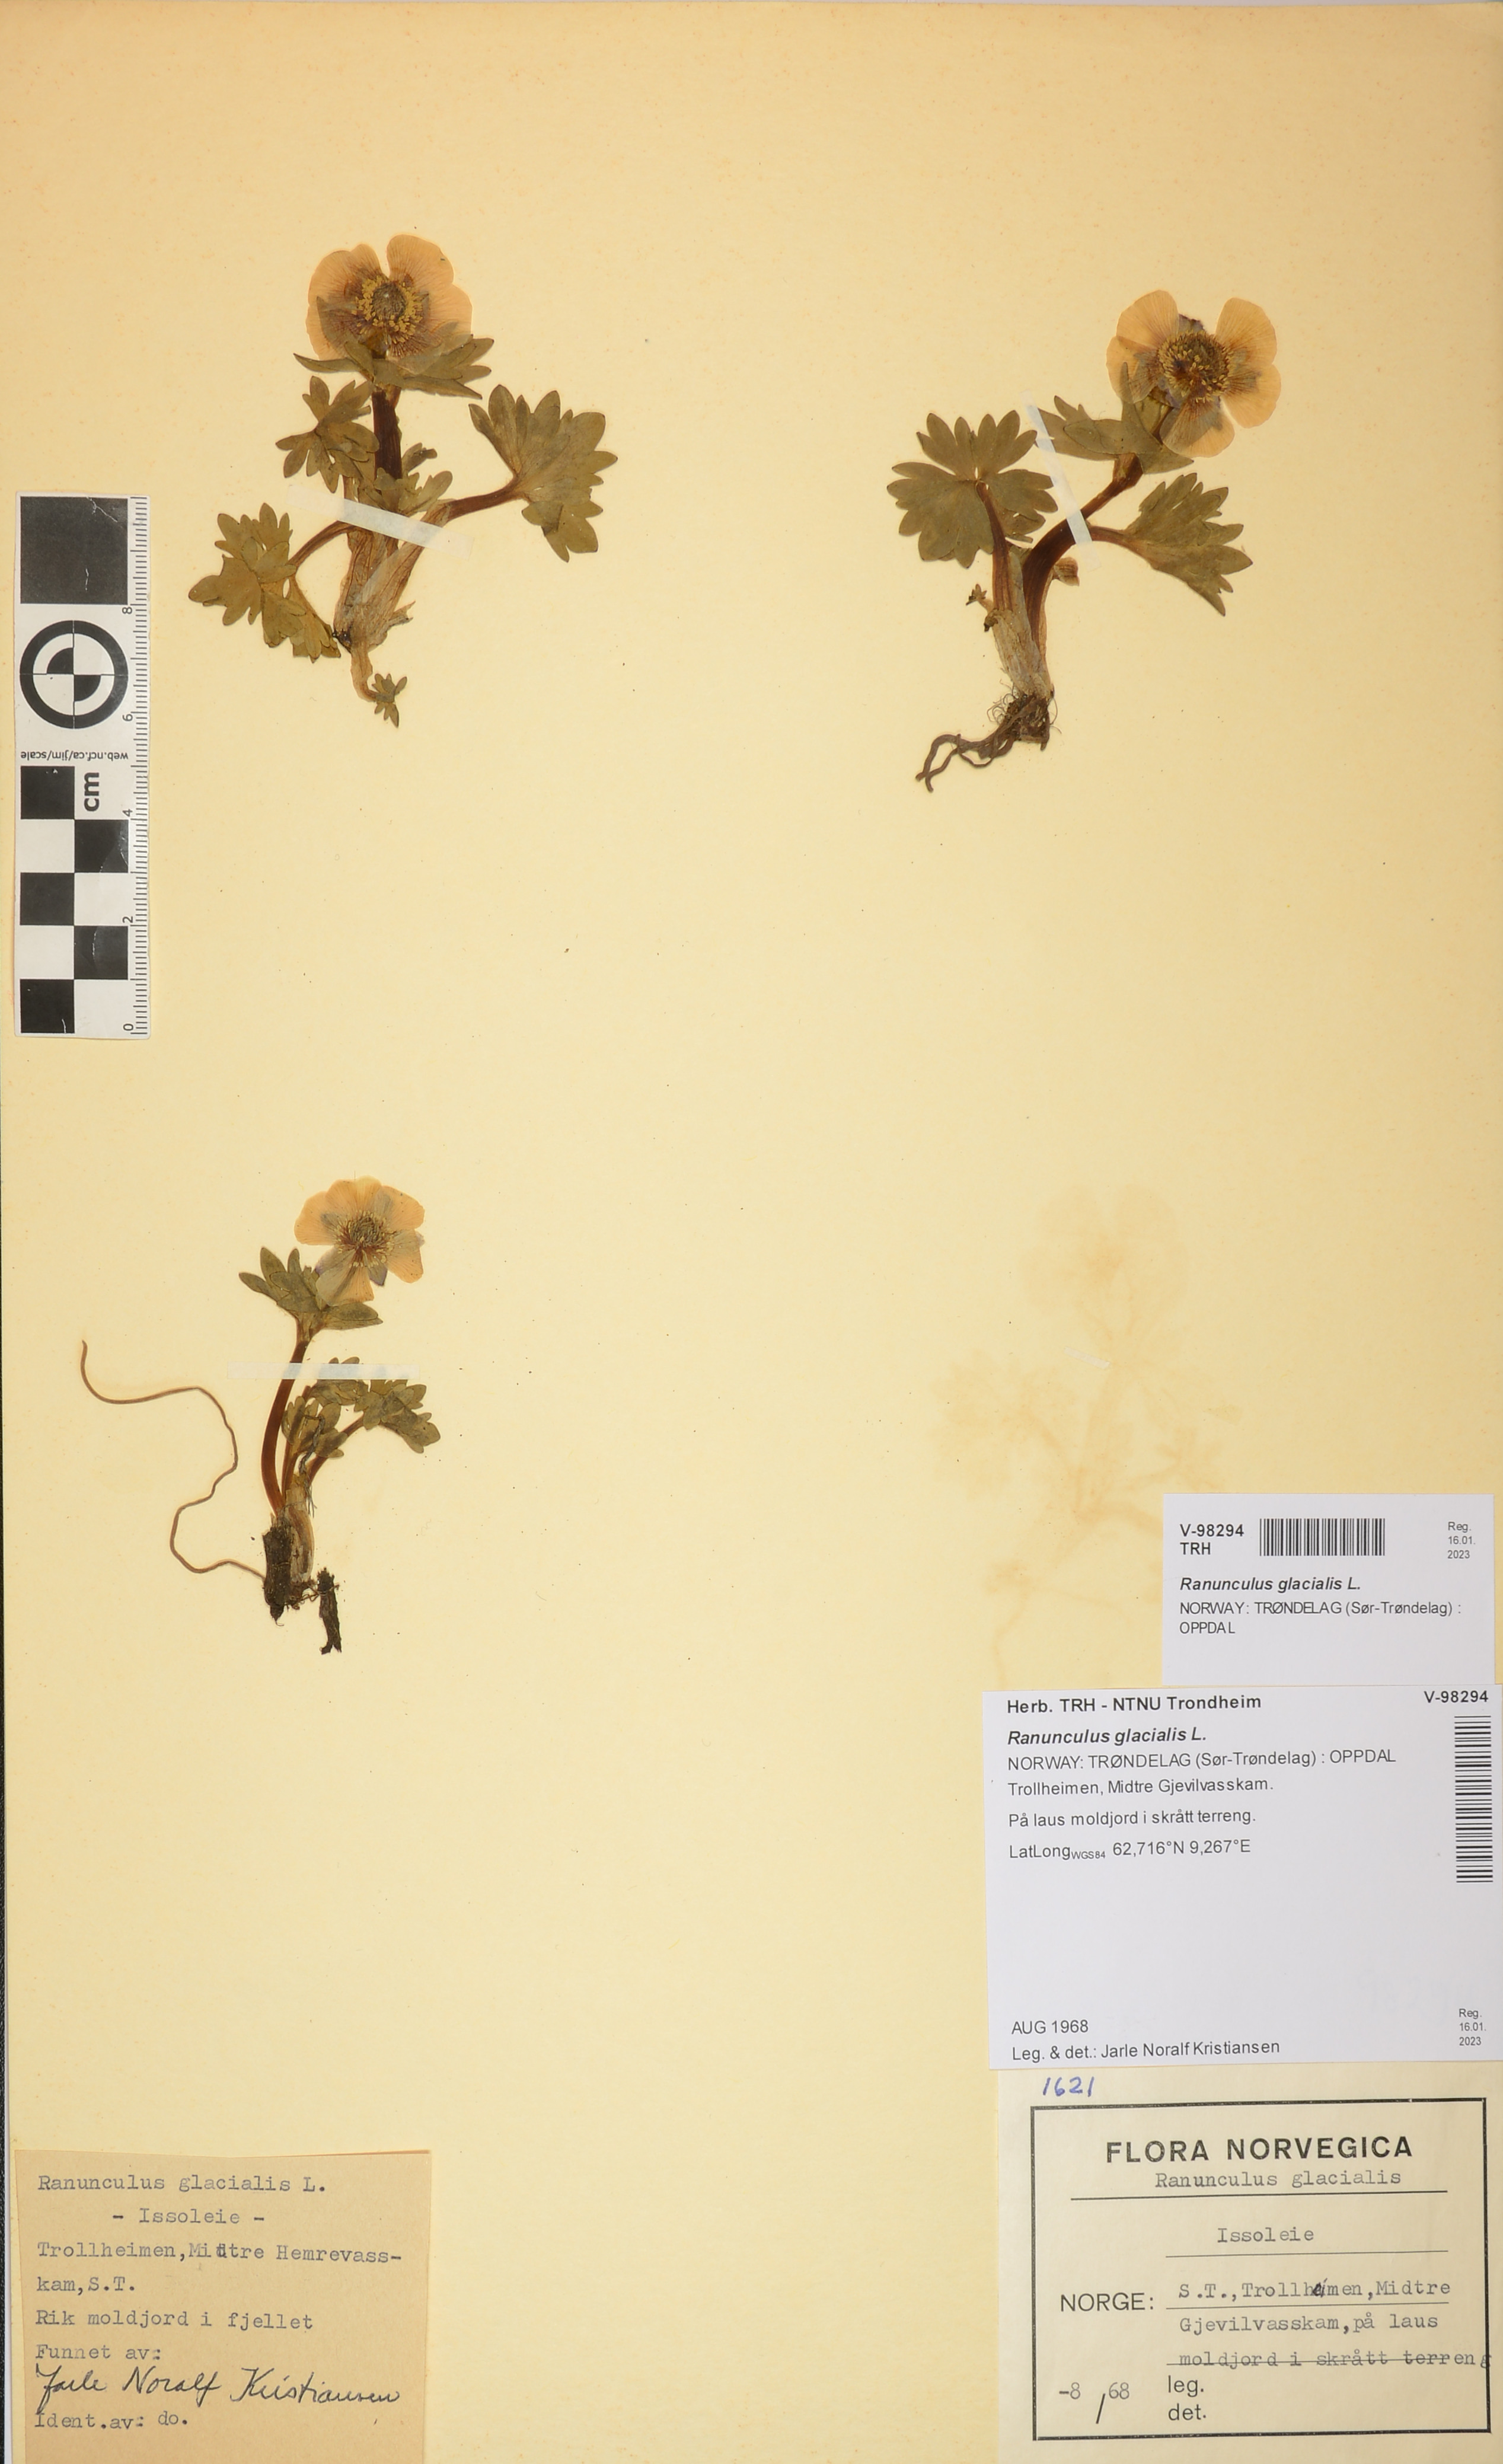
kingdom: Plantae
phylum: Tracheophyta
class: Magnoliopsida
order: Ranunculales
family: Ranunculaceae
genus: Ranunculus
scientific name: Ranunculus glacialis
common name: Glacier buttercup
